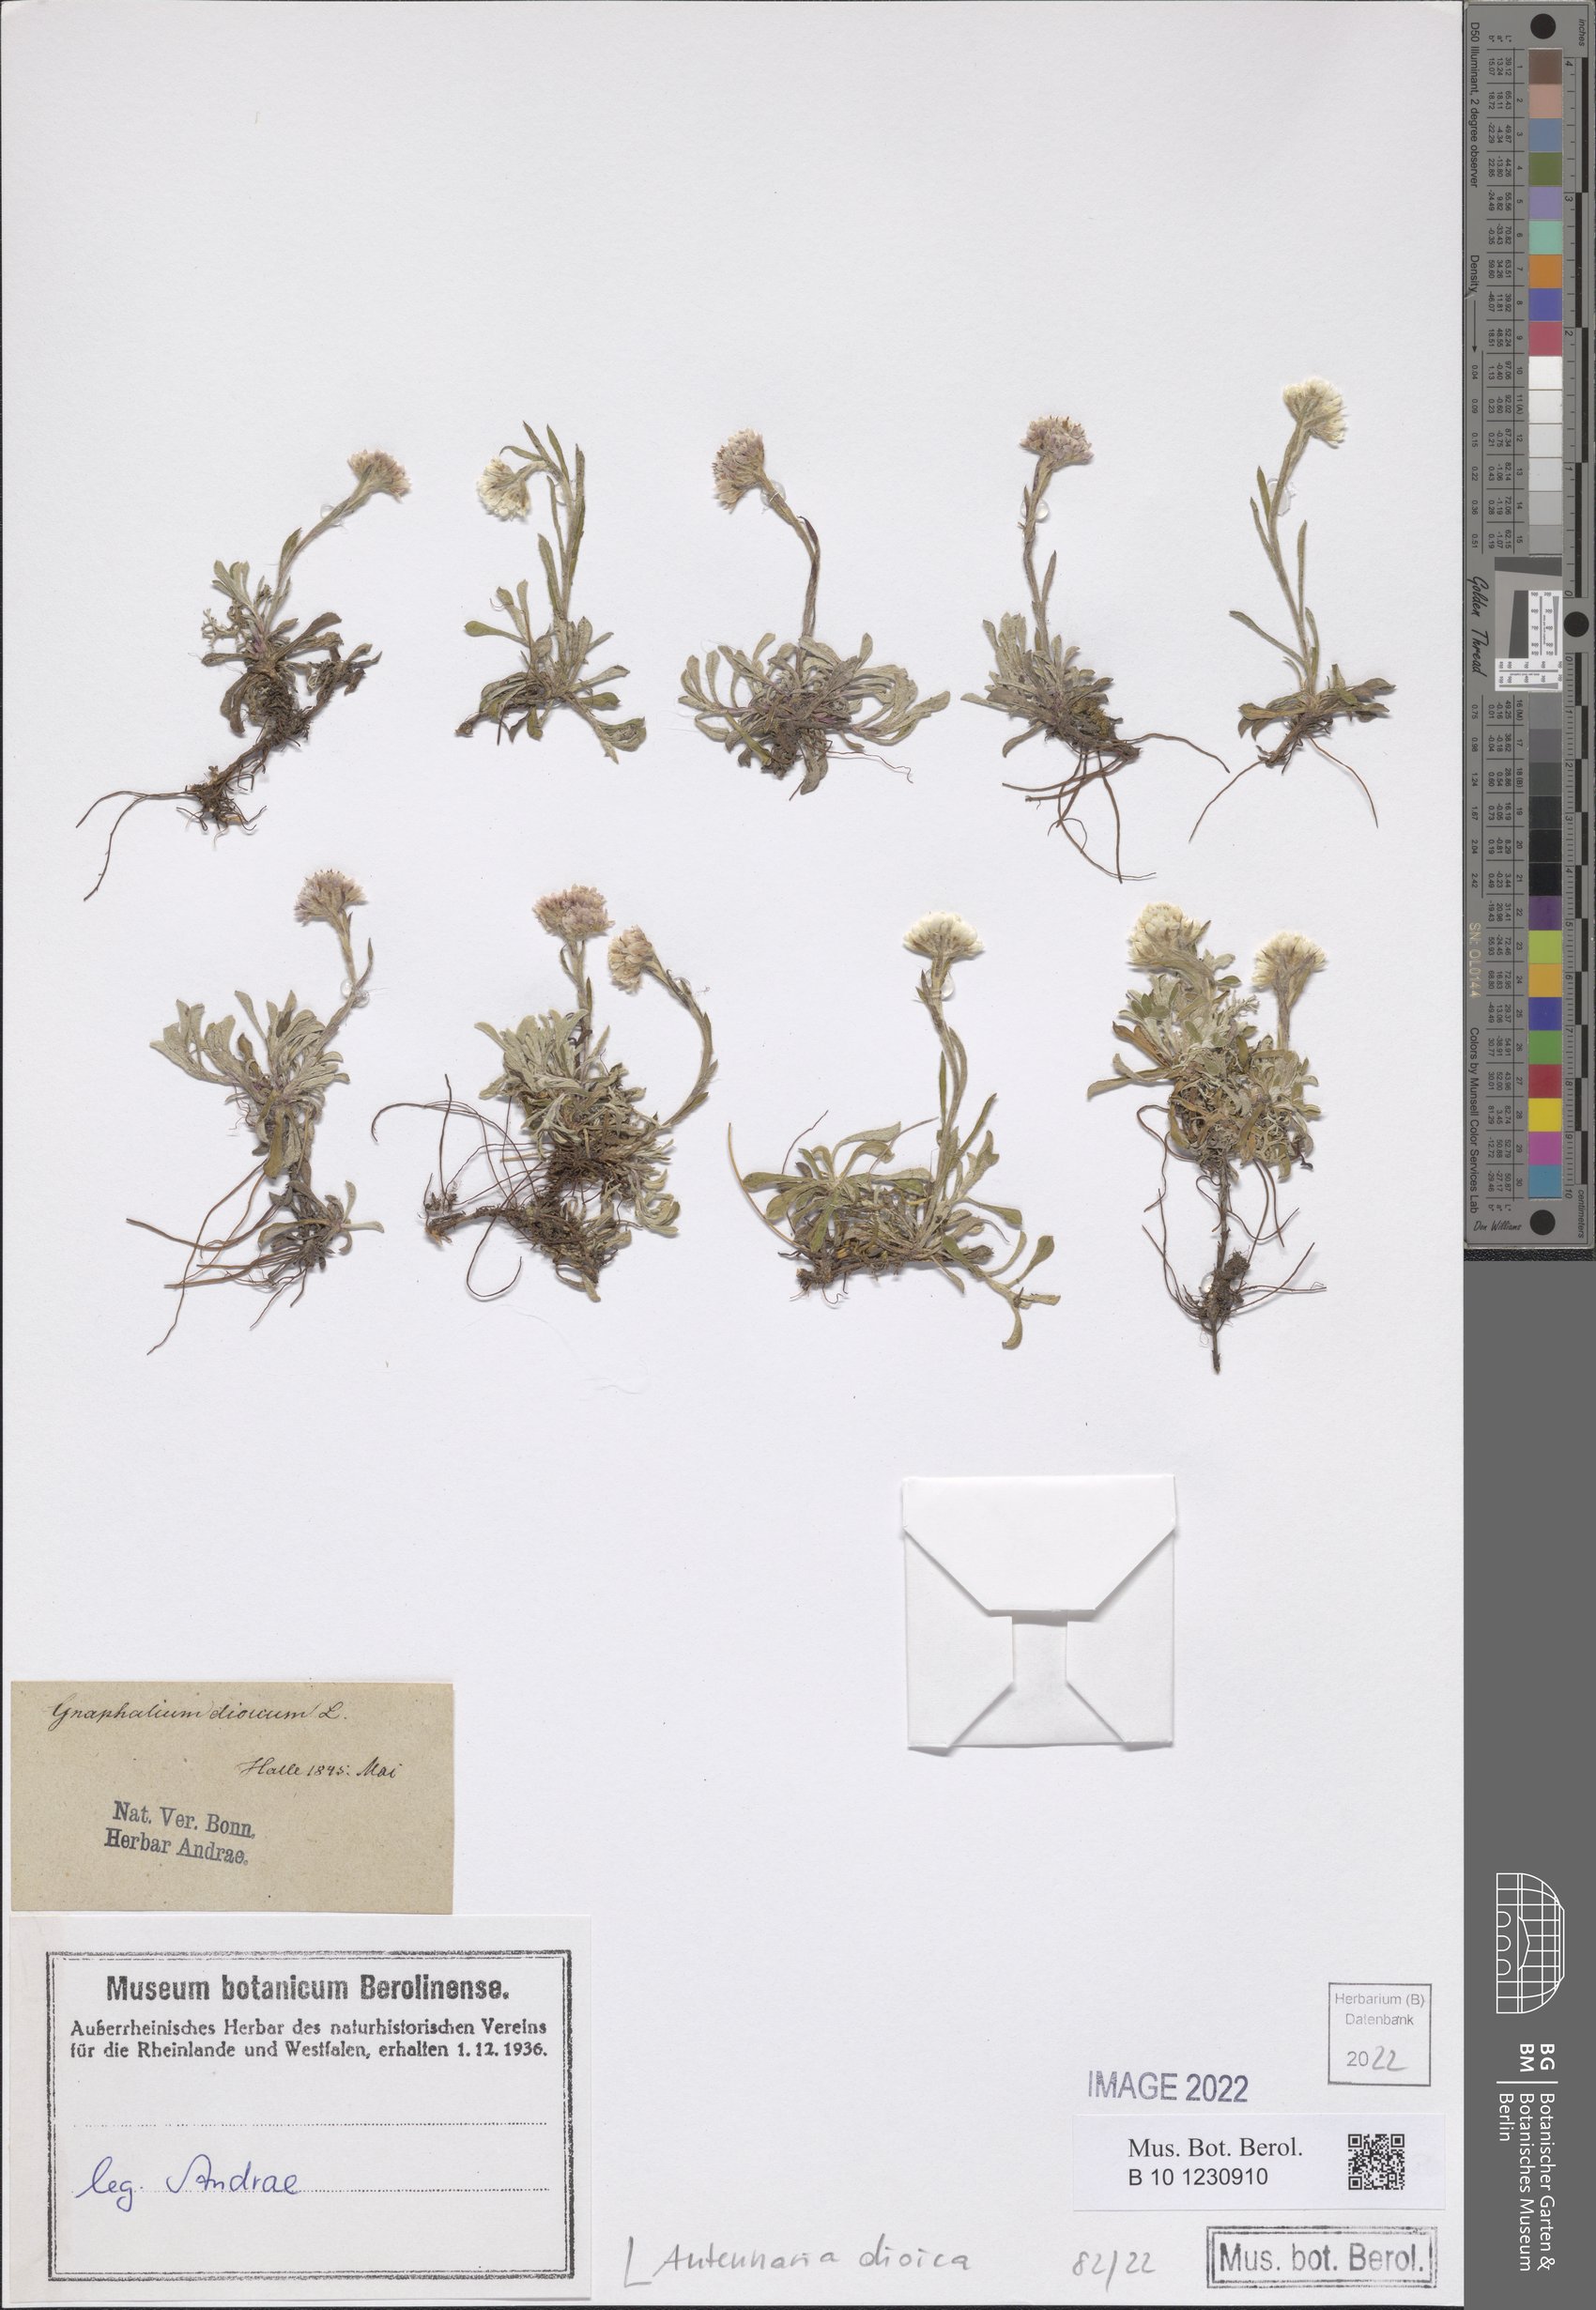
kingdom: Plantae
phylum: Tracheophyta
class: Magnoliopsida
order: Asterales
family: Asteraceae
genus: Antennaria
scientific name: Antennaria dioica
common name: Mountain everlasting
